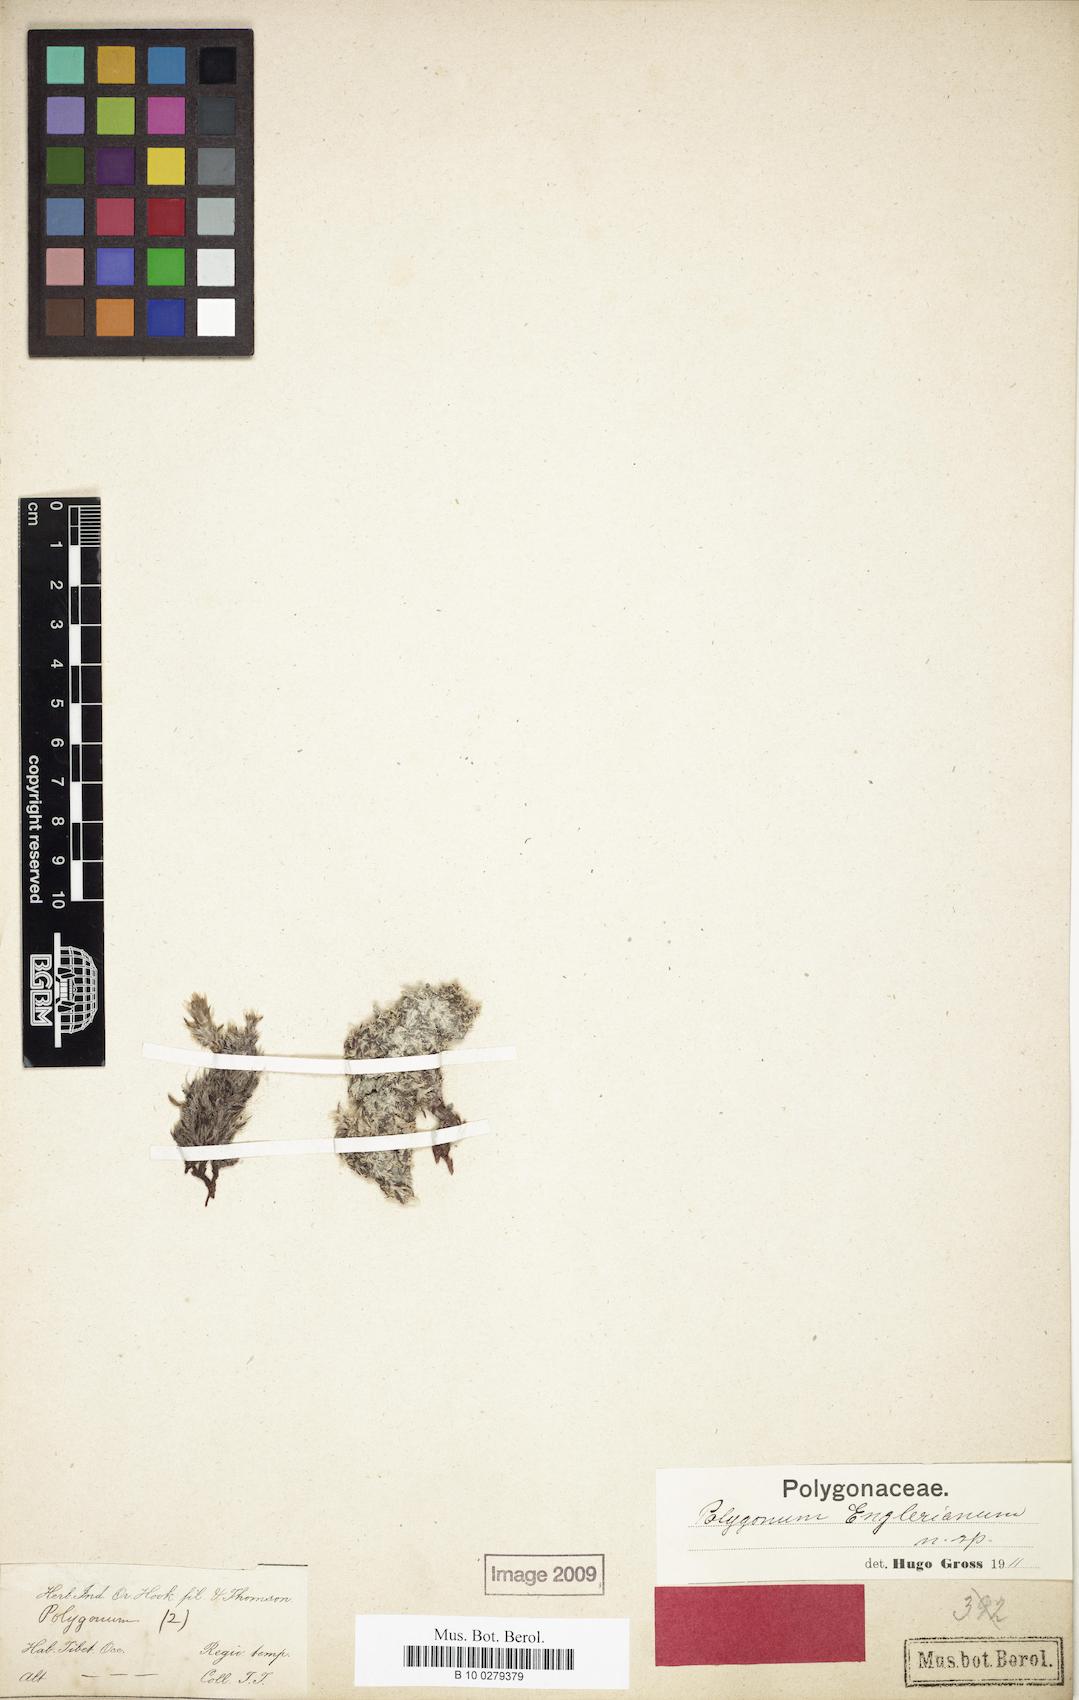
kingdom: Plantae
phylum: Tracheophyta
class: Magnoliopsida
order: Caryophyllales
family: Polygonaceae
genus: Polygonum
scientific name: Polygonum paronychioides
